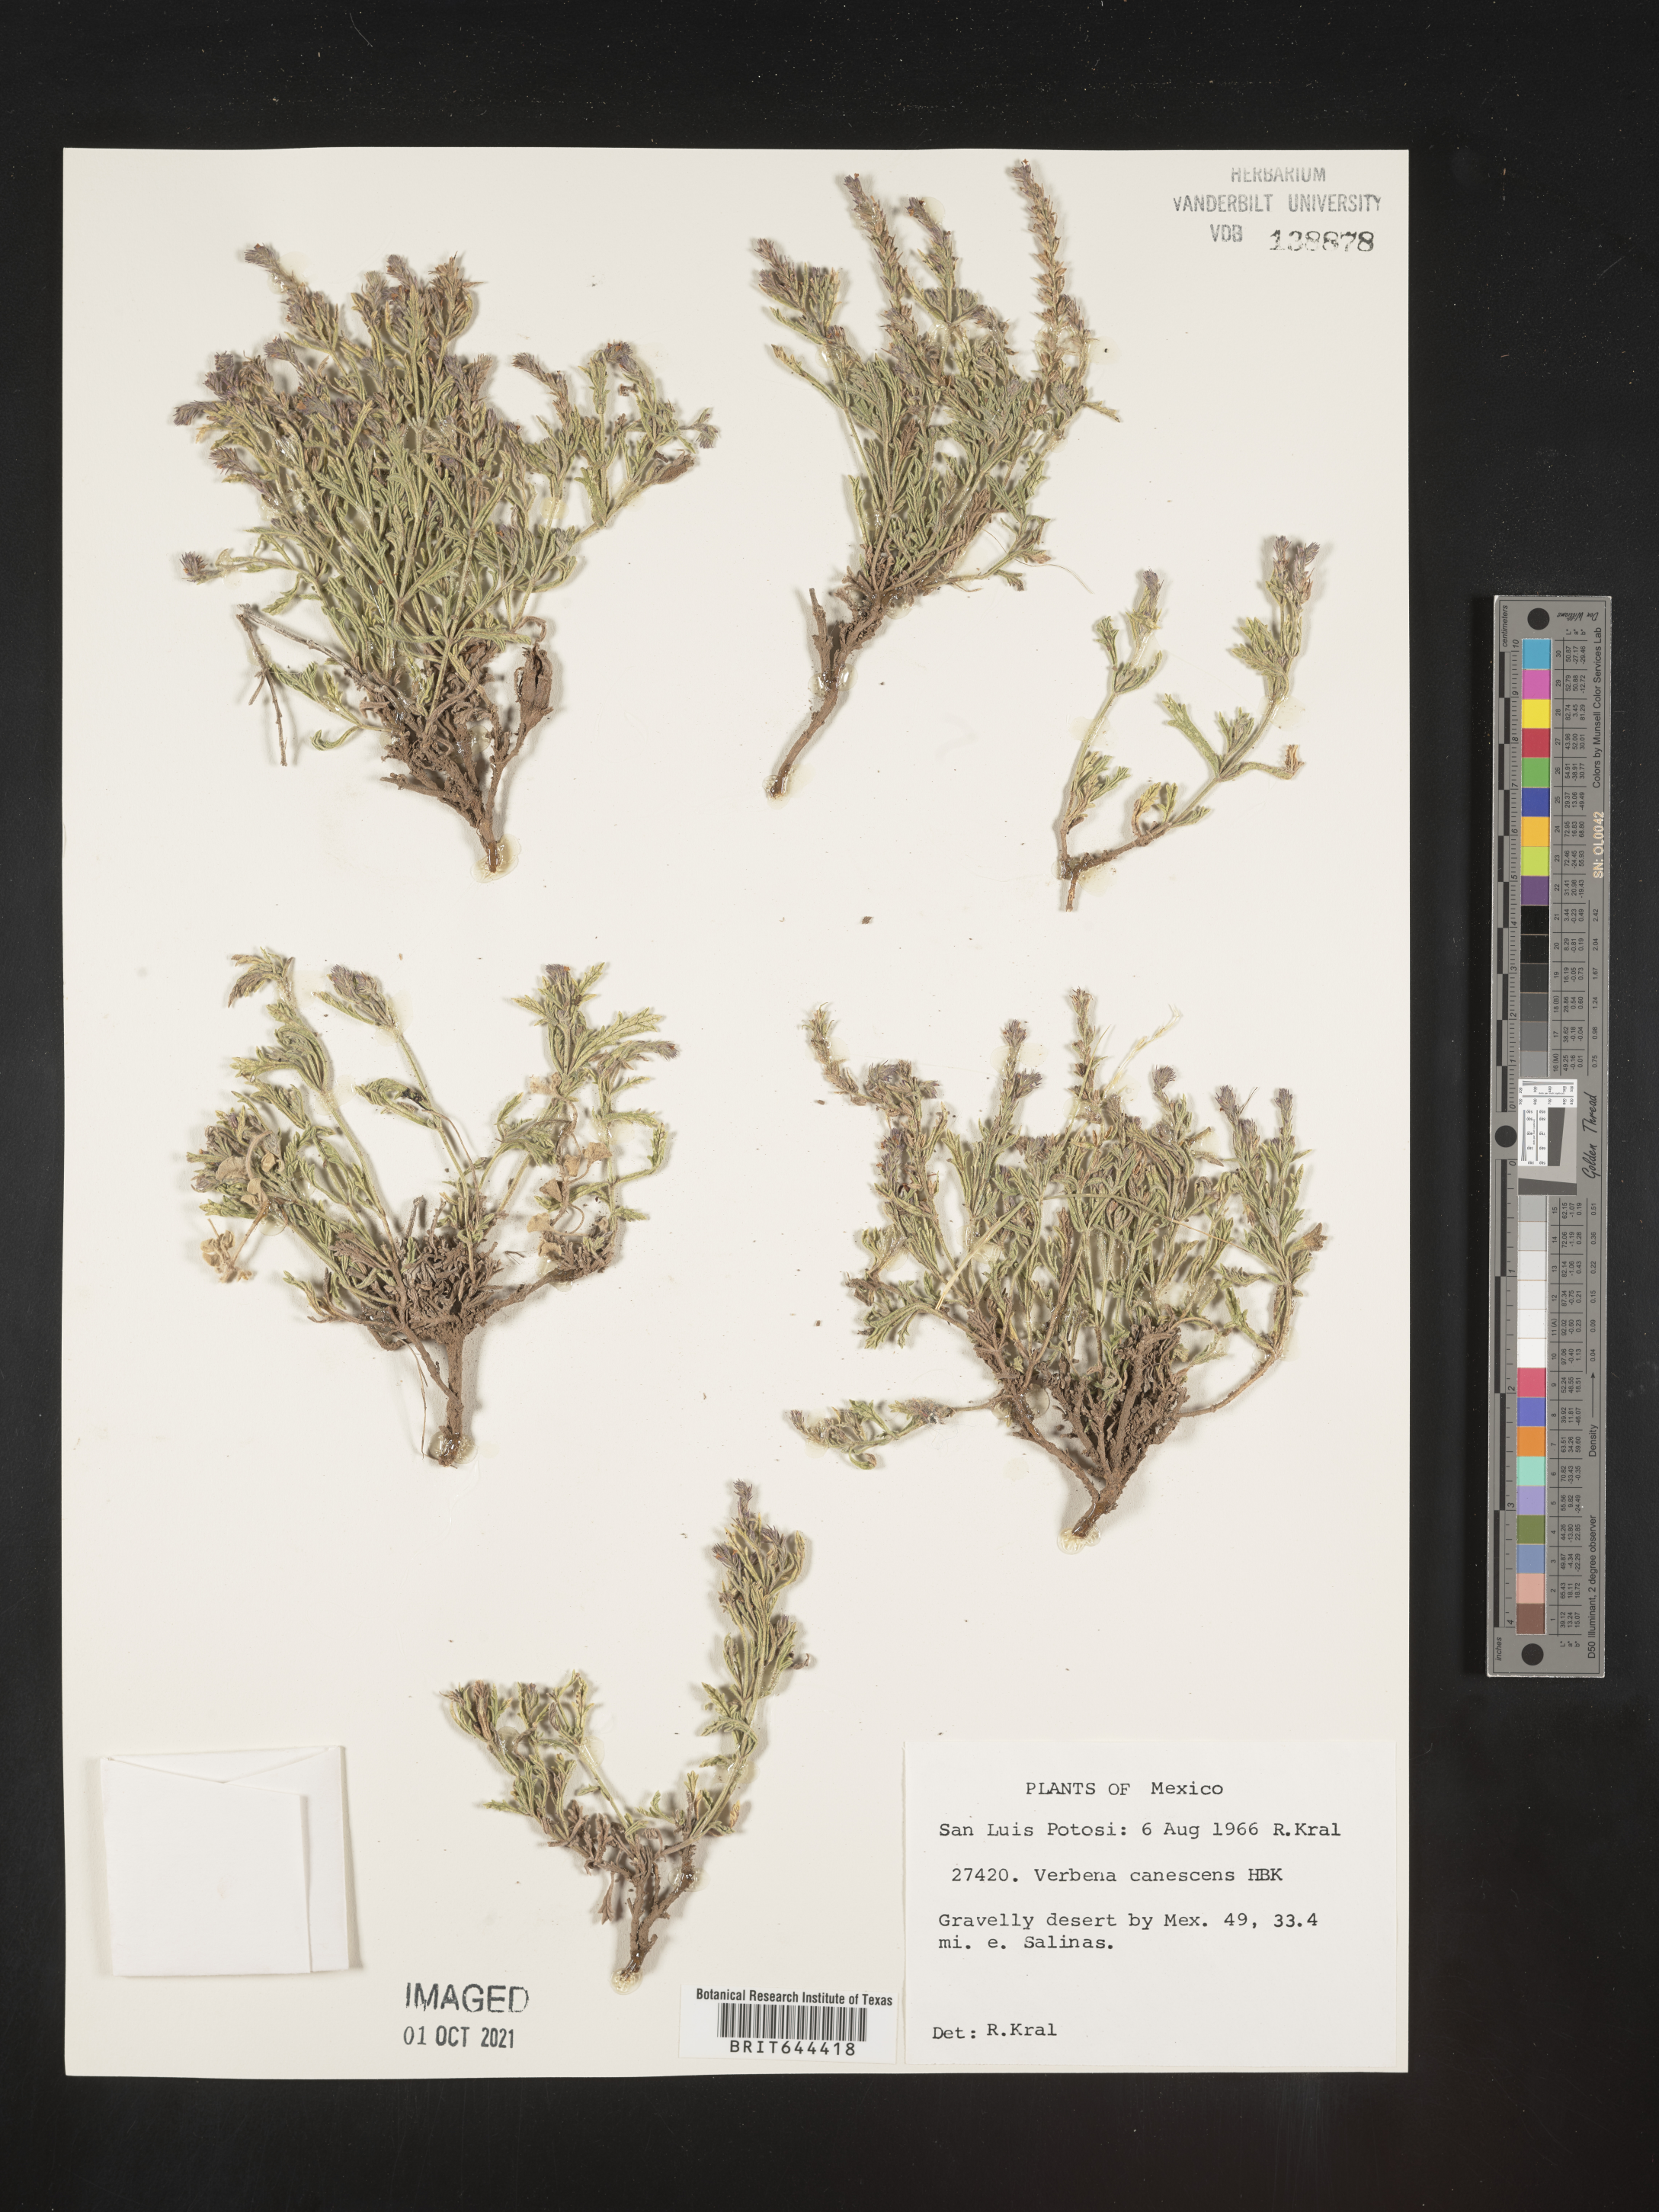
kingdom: Plantae
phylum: Tracheophyta
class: Magnoliopsida
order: Lamiales
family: Verbenaceae
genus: Verbena
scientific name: Verbena
